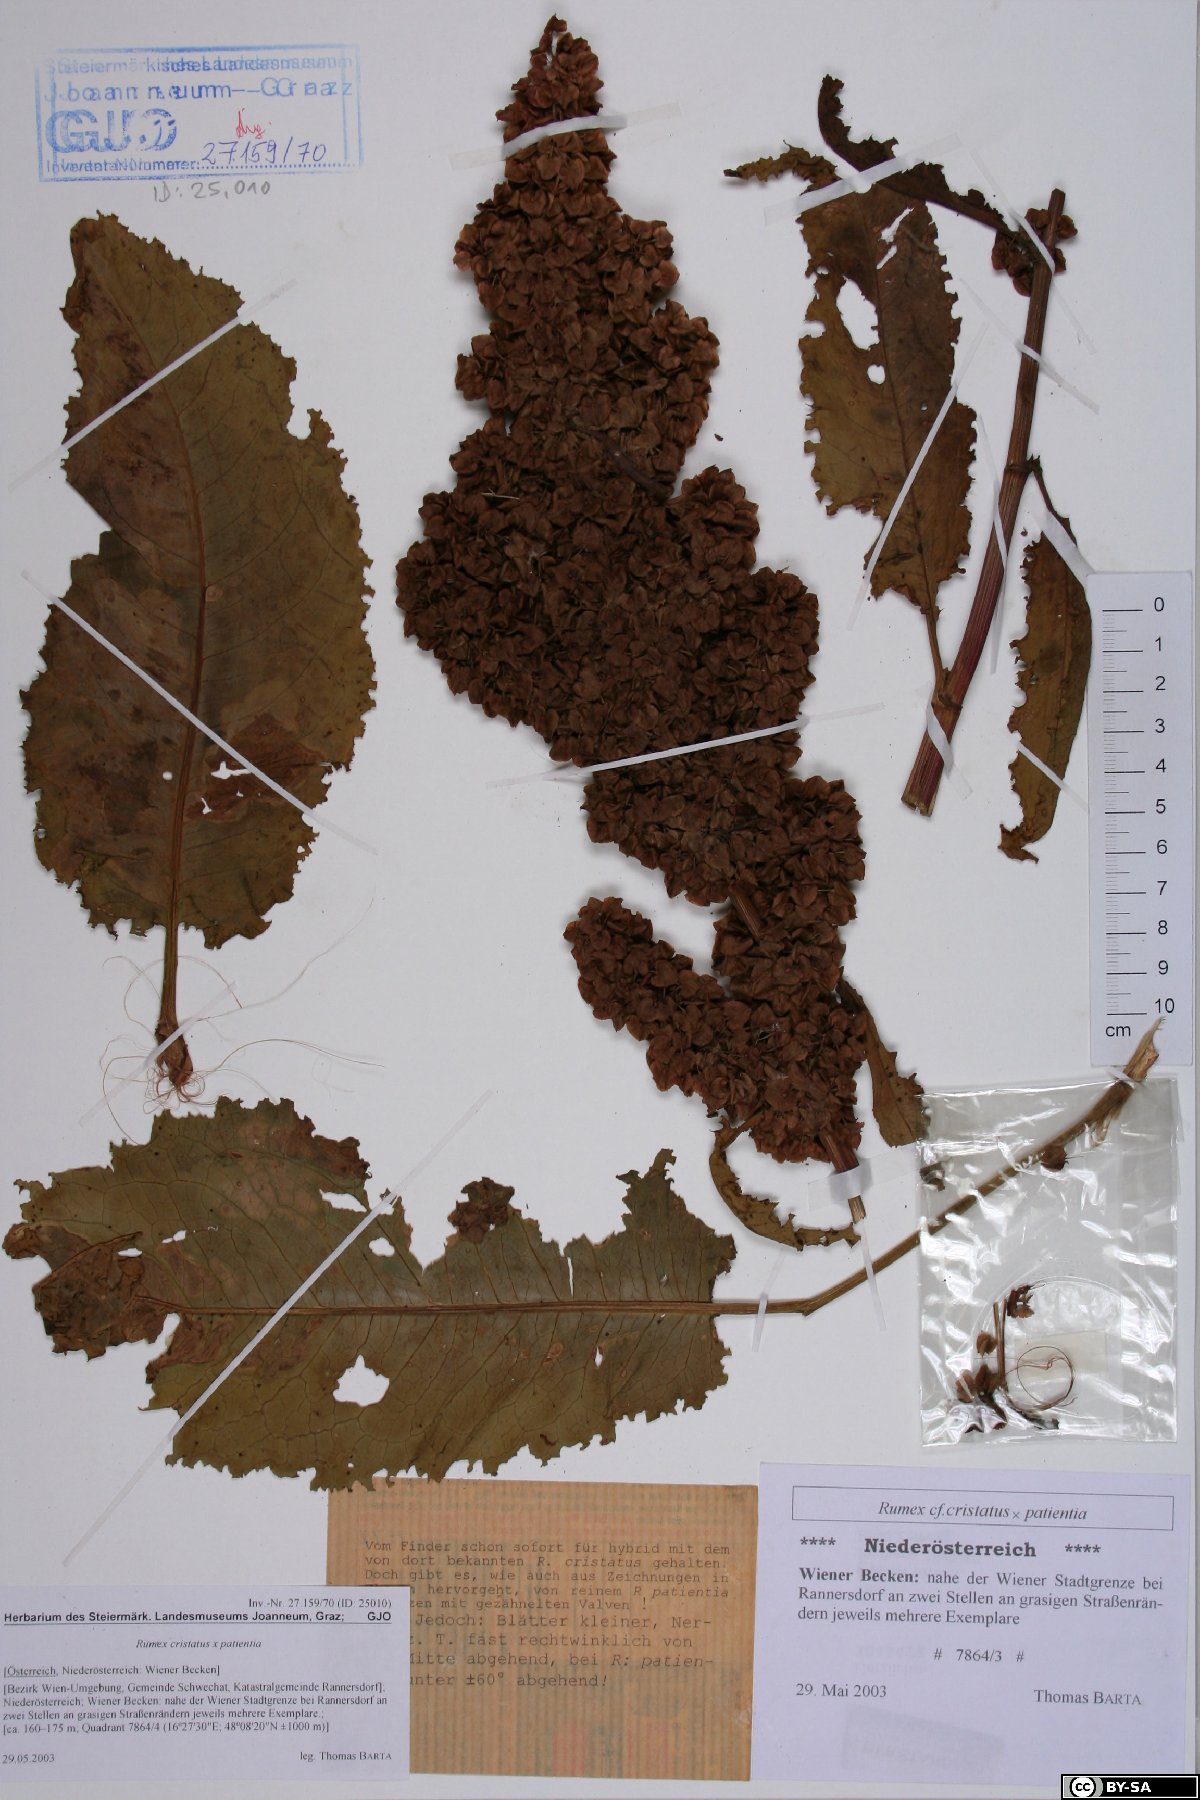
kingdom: Plantae
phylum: Tracheophyta
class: Magnoliopsida
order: Caryophyllales
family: Polygonaceae
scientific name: Polygonaceae
